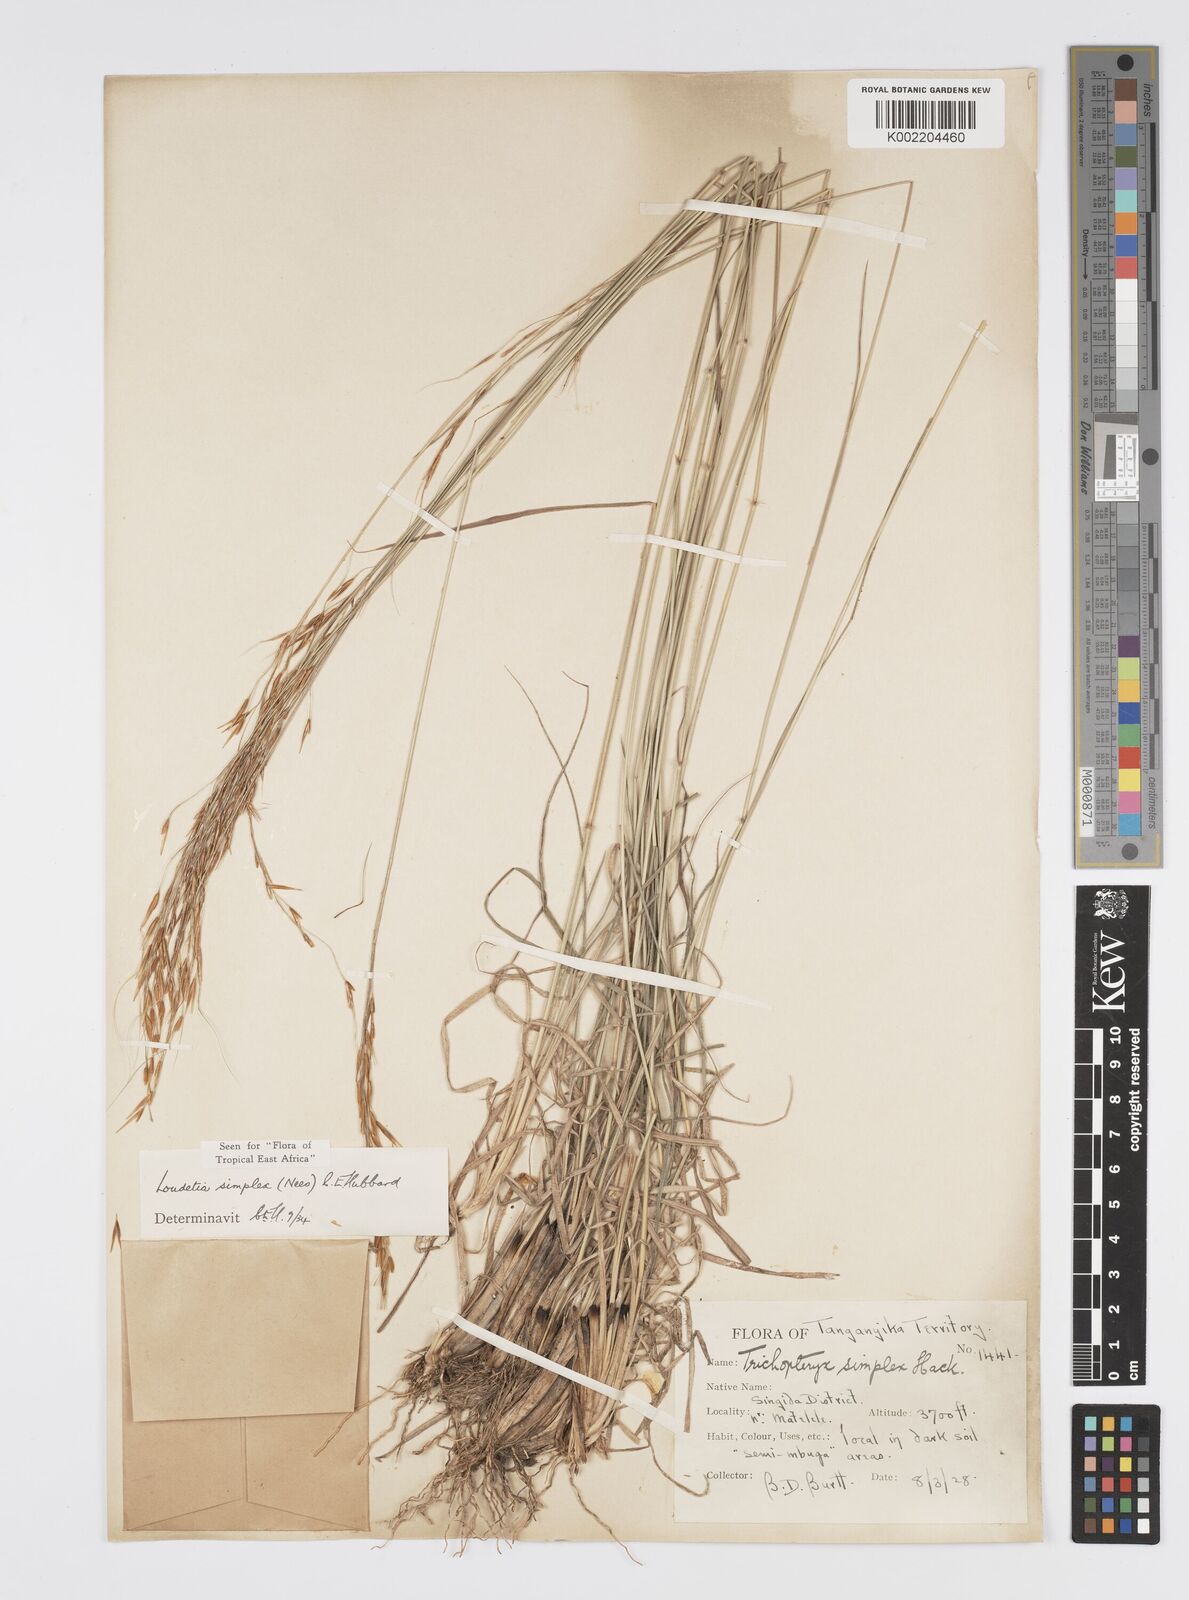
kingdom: Plantae
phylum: Tracheophyta
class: Liliopsida
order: Poales
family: Poaceae
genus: Loudetia
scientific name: Loudetia simplex
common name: Common russet grass
